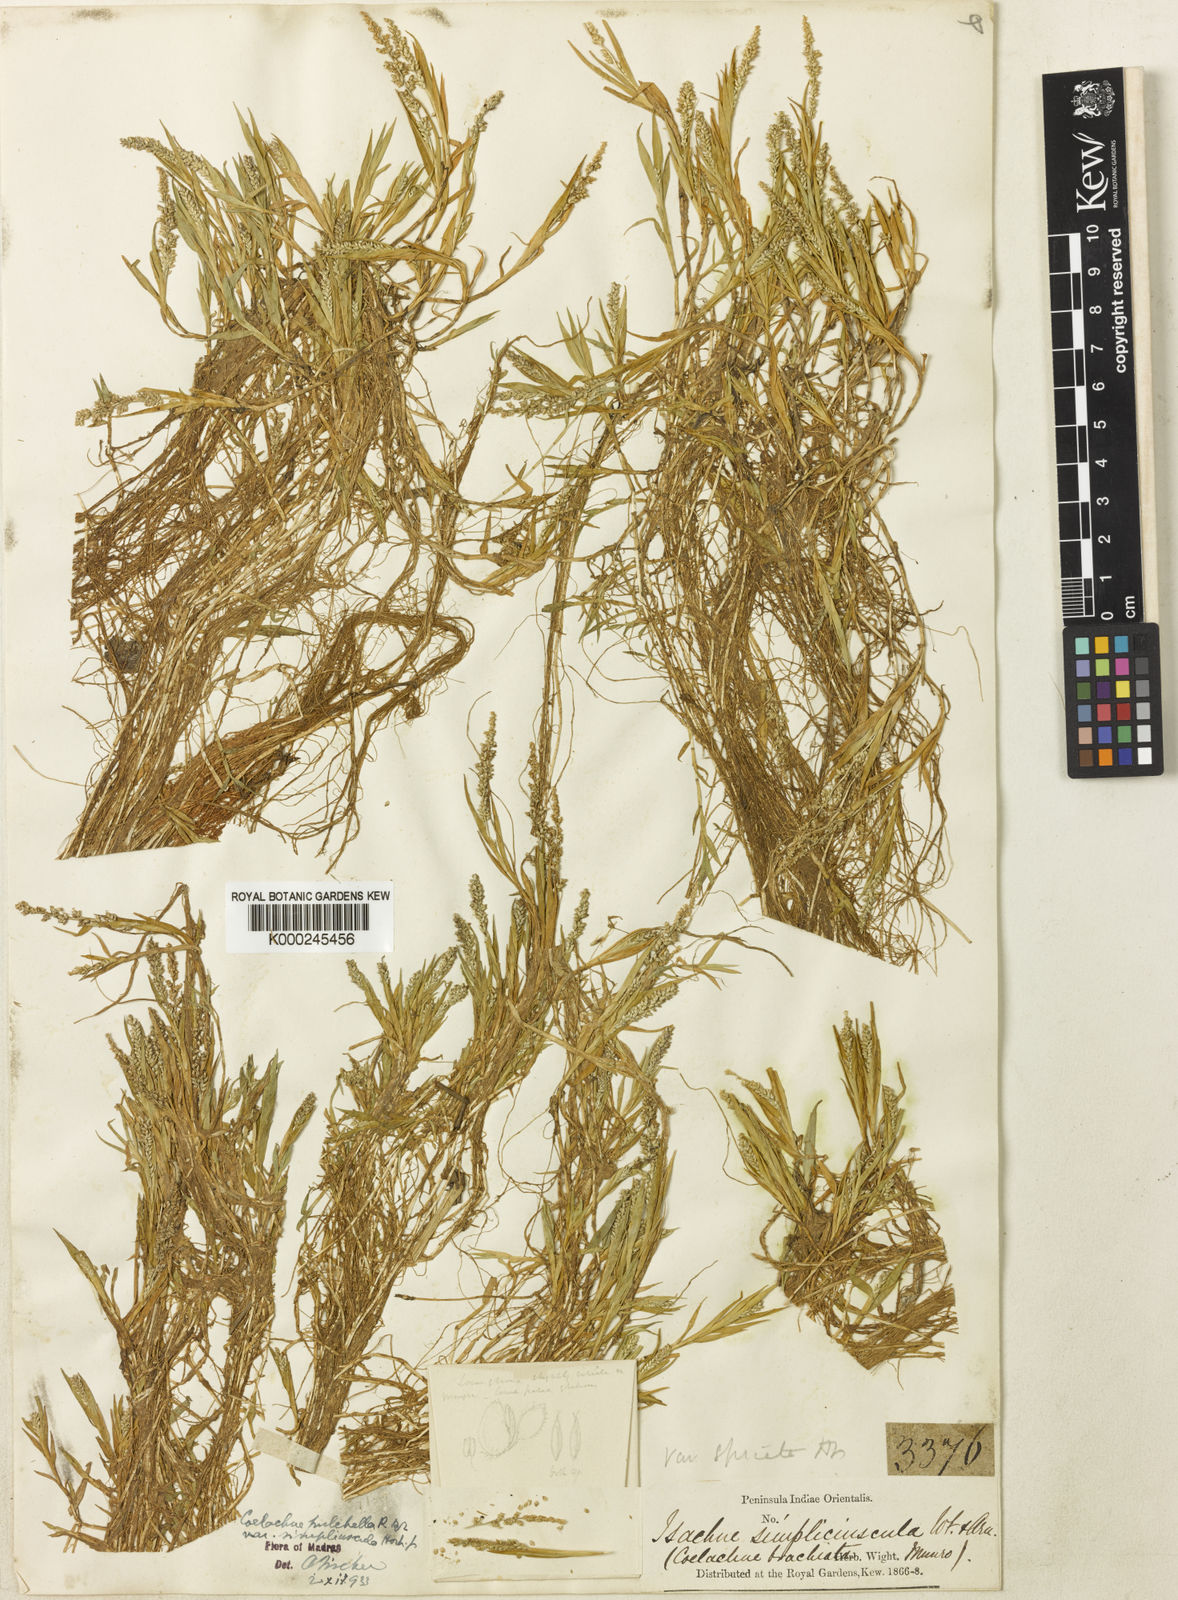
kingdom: Plantae
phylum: Tracheophyta
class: Liliopsida
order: Poales
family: Poaceae
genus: Coelachne
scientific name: Coelachne simpliciuscula
